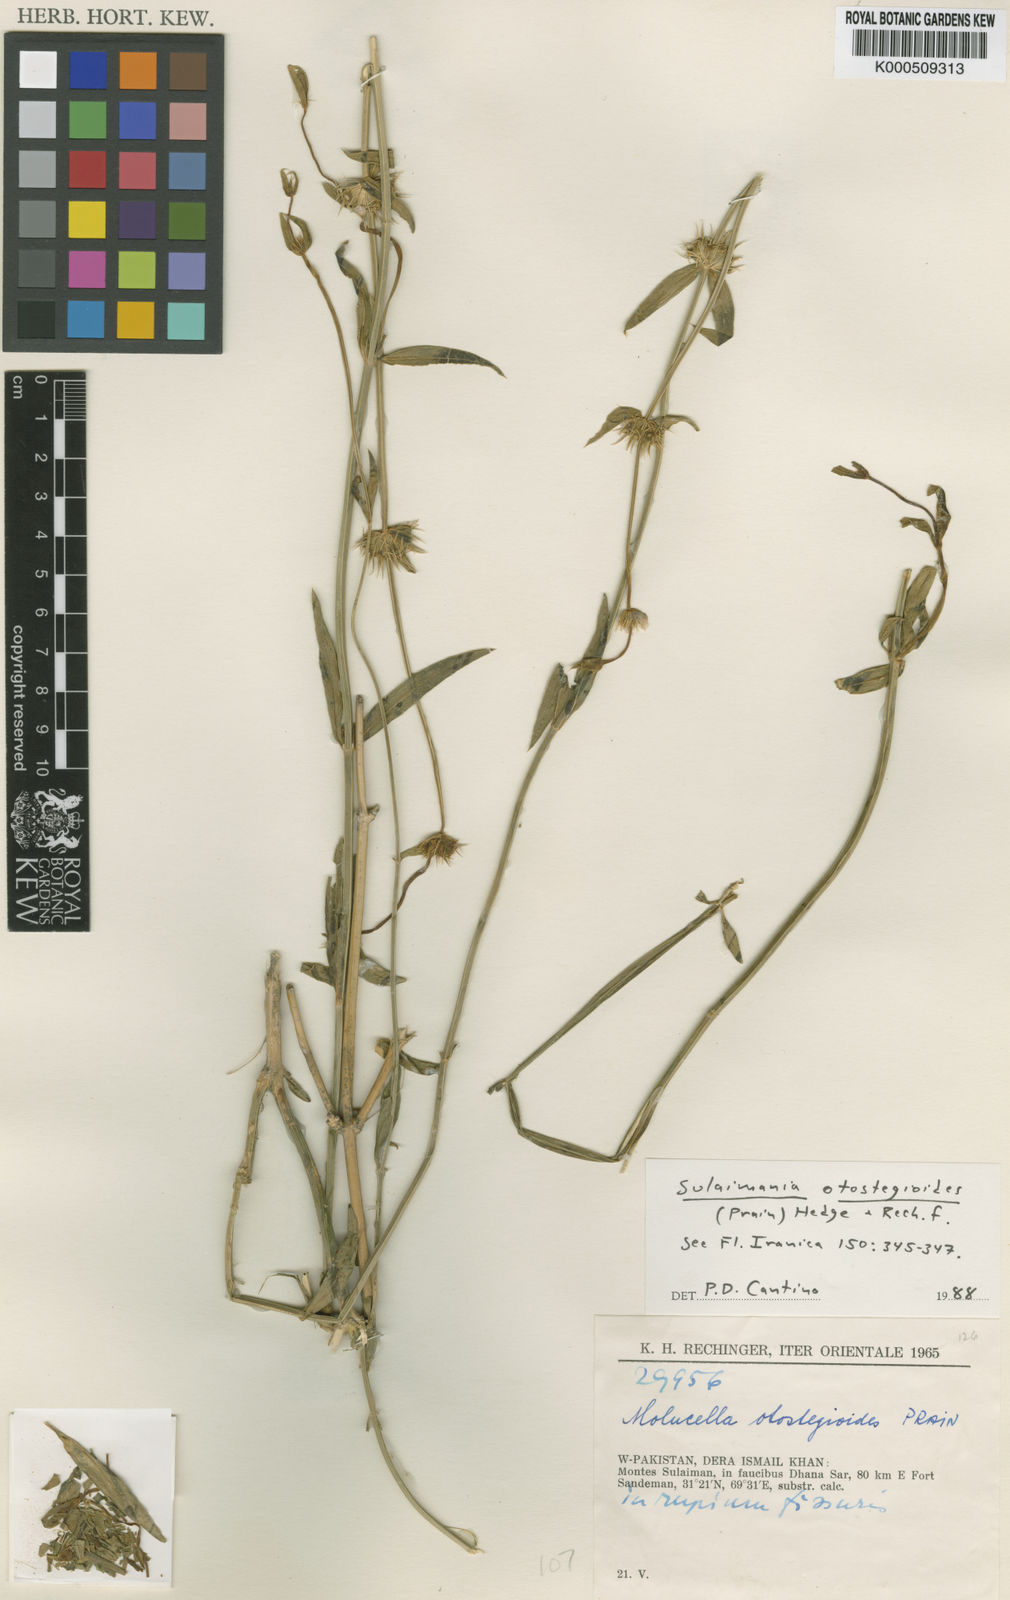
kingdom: Plantae
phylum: Tracheophyta
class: Magnoliopsida
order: Lamiales
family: Lamiaceae
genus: Moluccella
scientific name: Moluccella otostegioides
